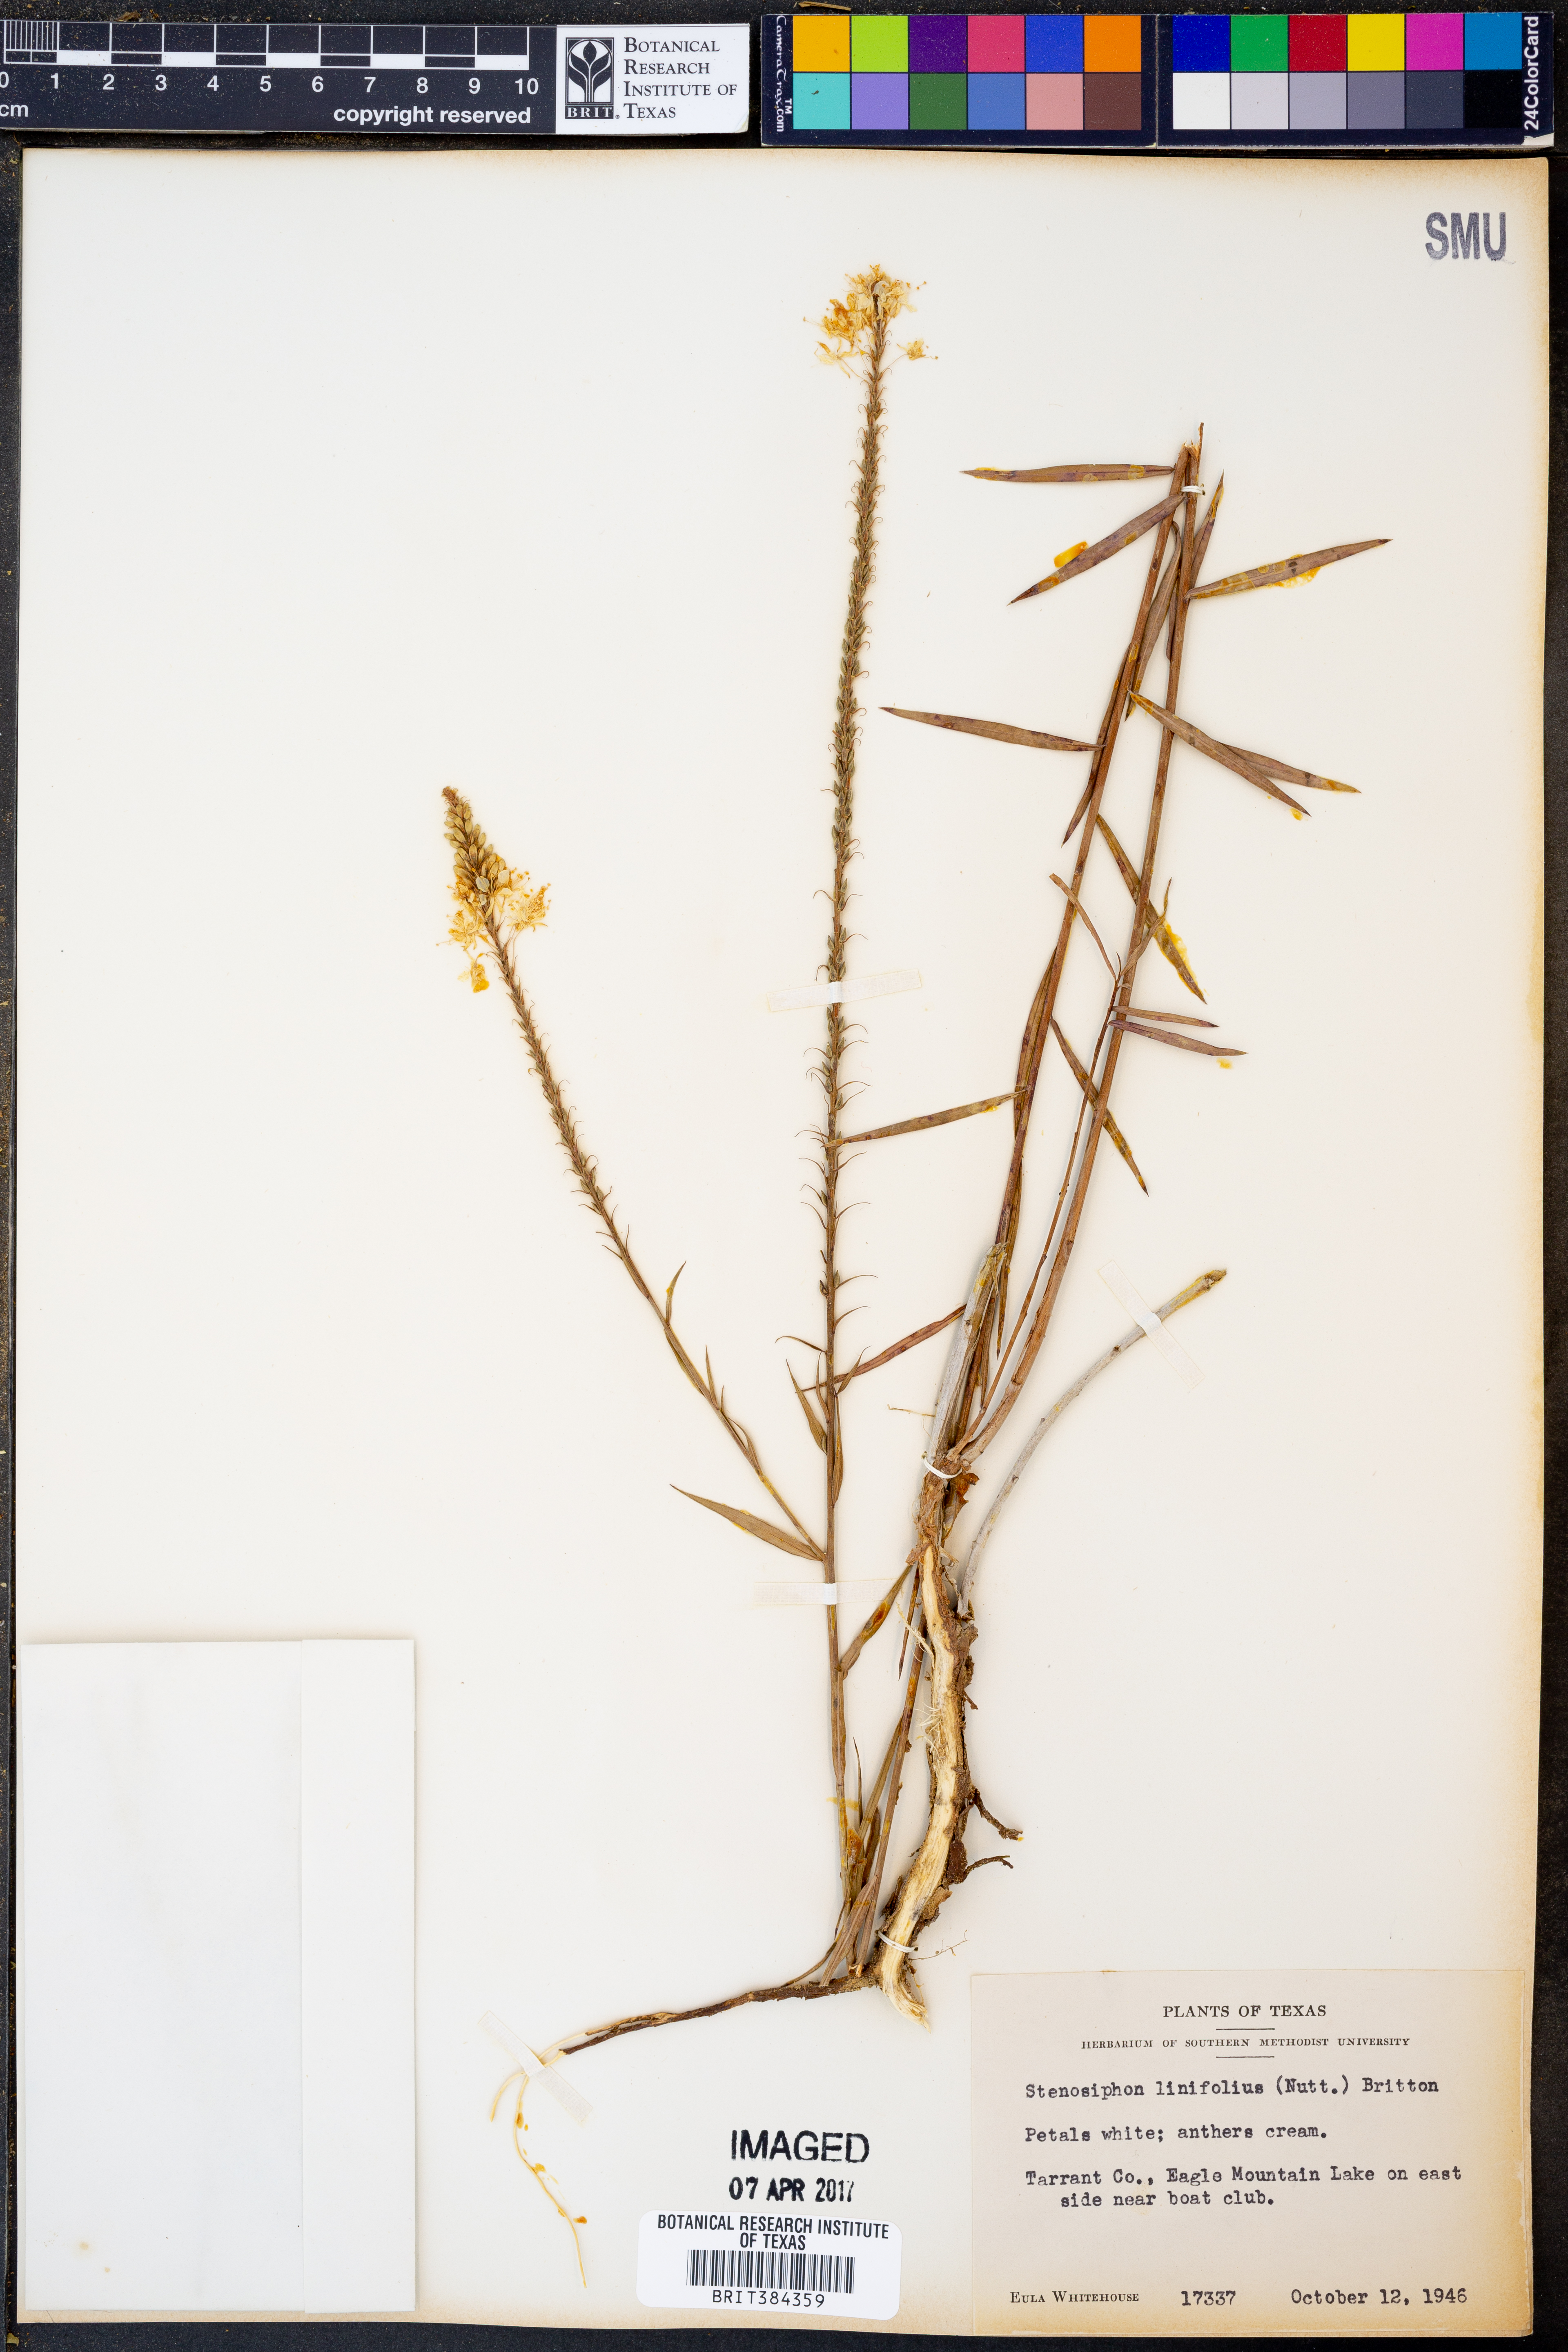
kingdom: Plantae
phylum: Tracheophyta
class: Magnoliopsida
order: Myrtales
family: Onagraceae
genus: Oenothera
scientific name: Oenothera glaucifolia
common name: False gaura
